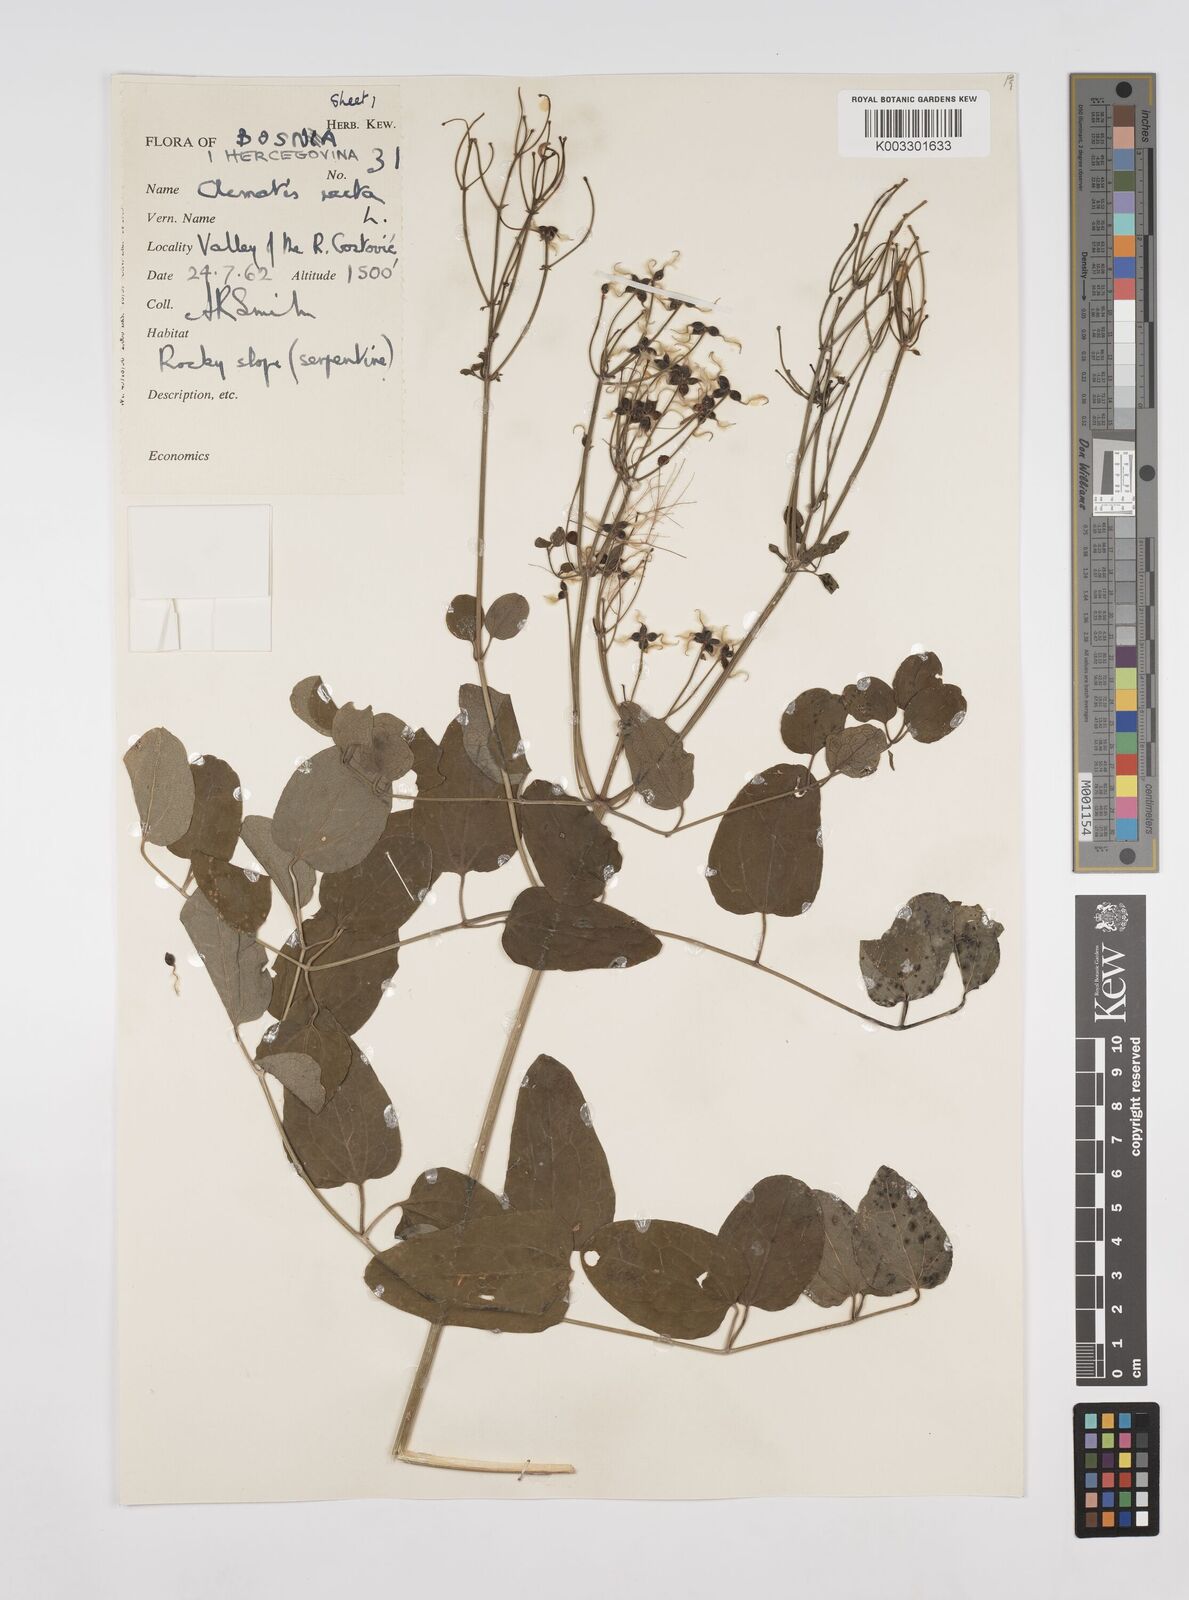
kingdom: Plantae
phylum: Tracheophyta
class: Magnoliopsida
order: Ranunculales
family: Ranunculaceae
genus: Clematis
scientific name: Clematis recta
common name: Ground clematis
